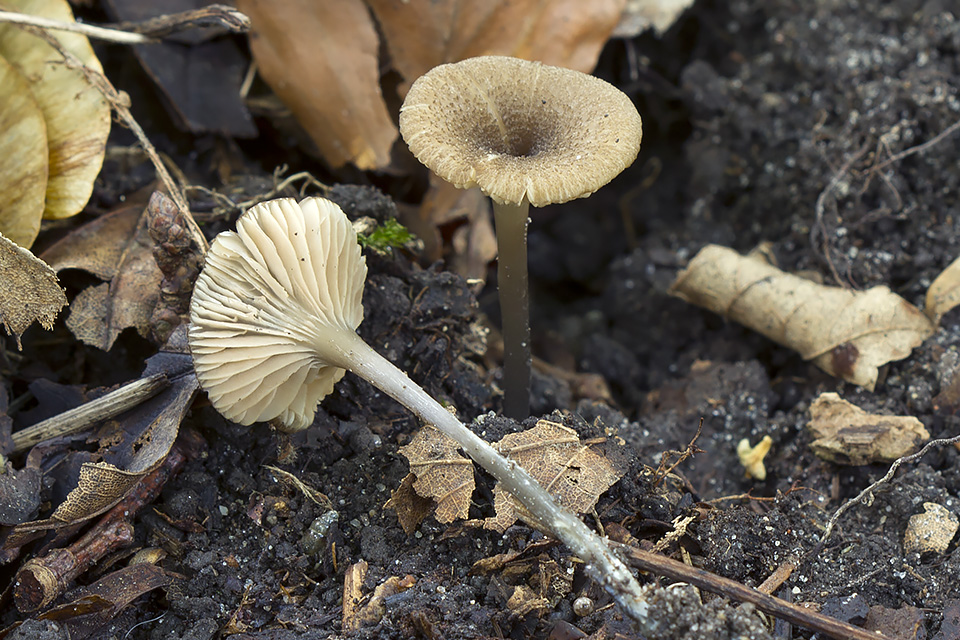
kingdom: Fungi
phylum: Basidiomycota
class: Agaricomycetes
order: Agaricales
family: Entolomataceae
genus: Entoloma
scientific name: Entoloma allospermum
